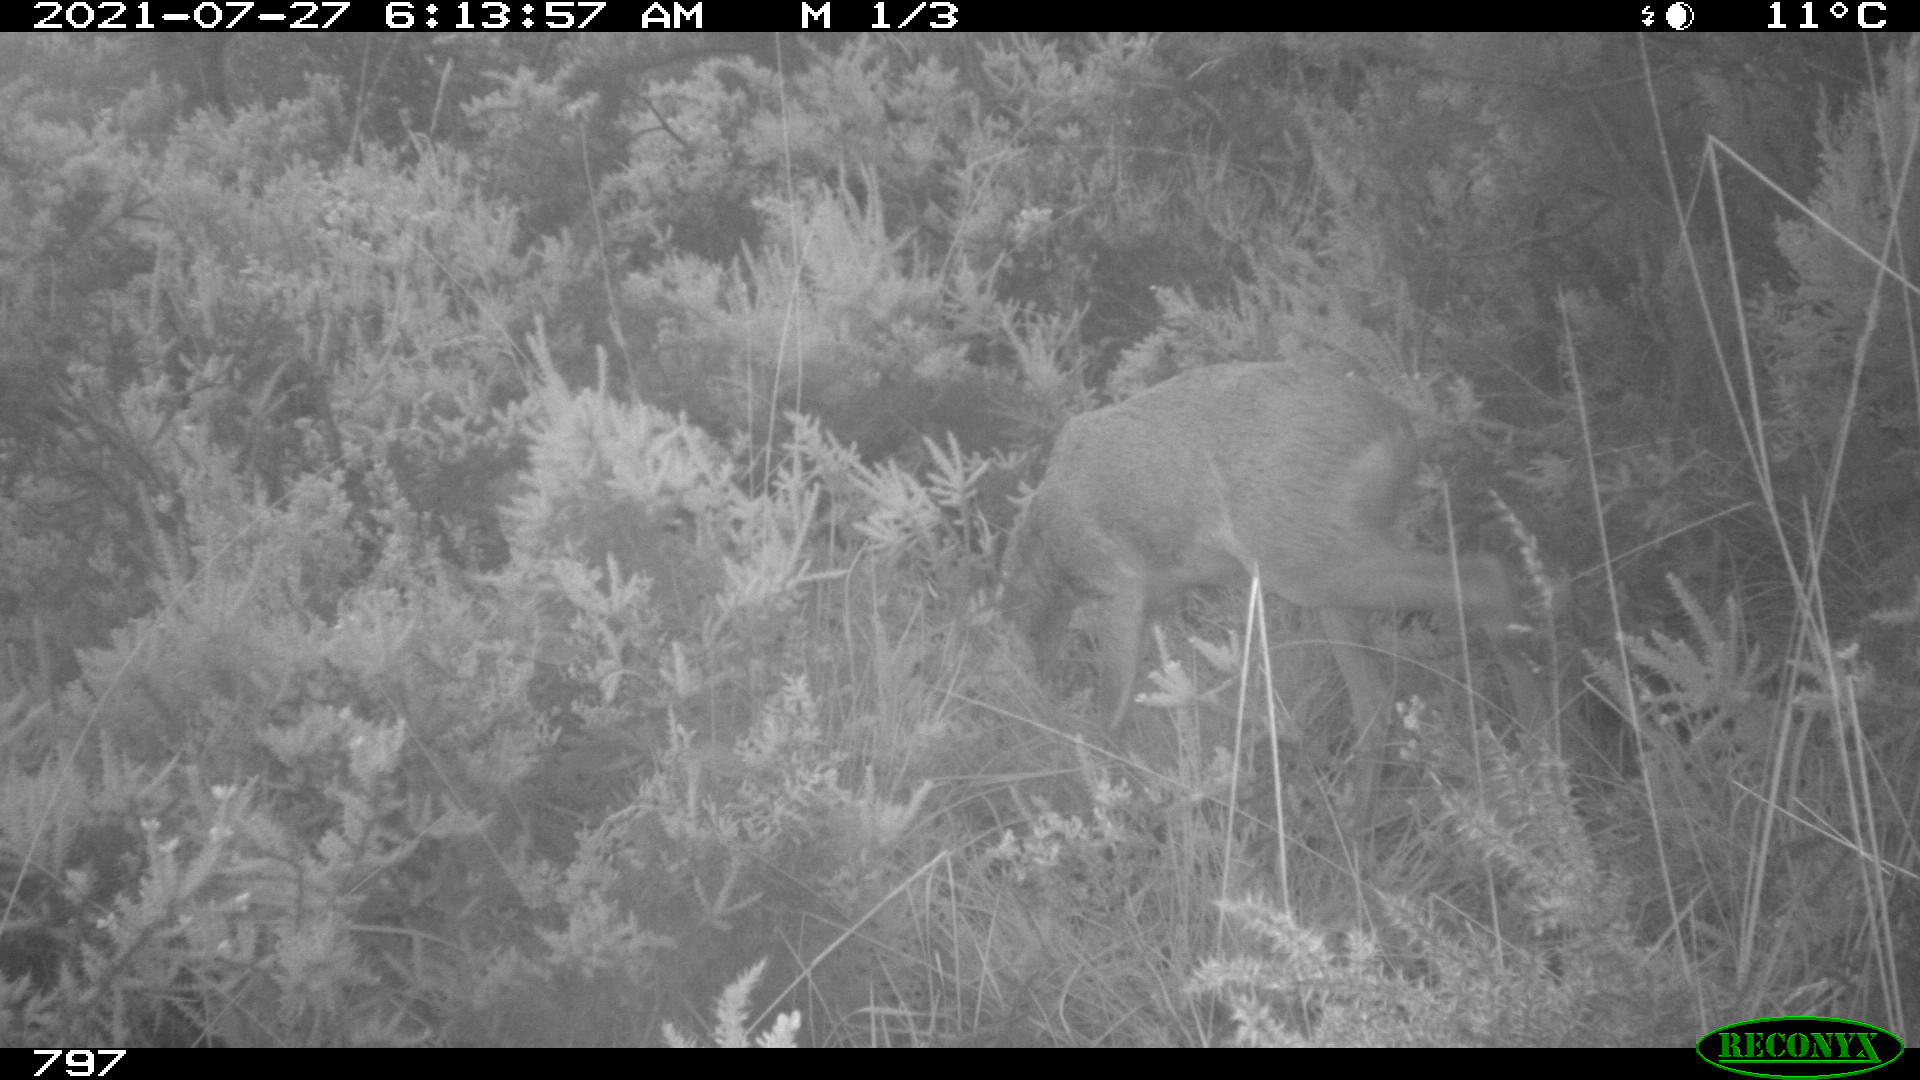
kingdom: Animalia
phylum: Chordata
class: Mammalia
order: Artiodactyla
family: Cervidae
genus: Capreolus
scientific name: Capreolus capreolus
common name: Western roe deer
